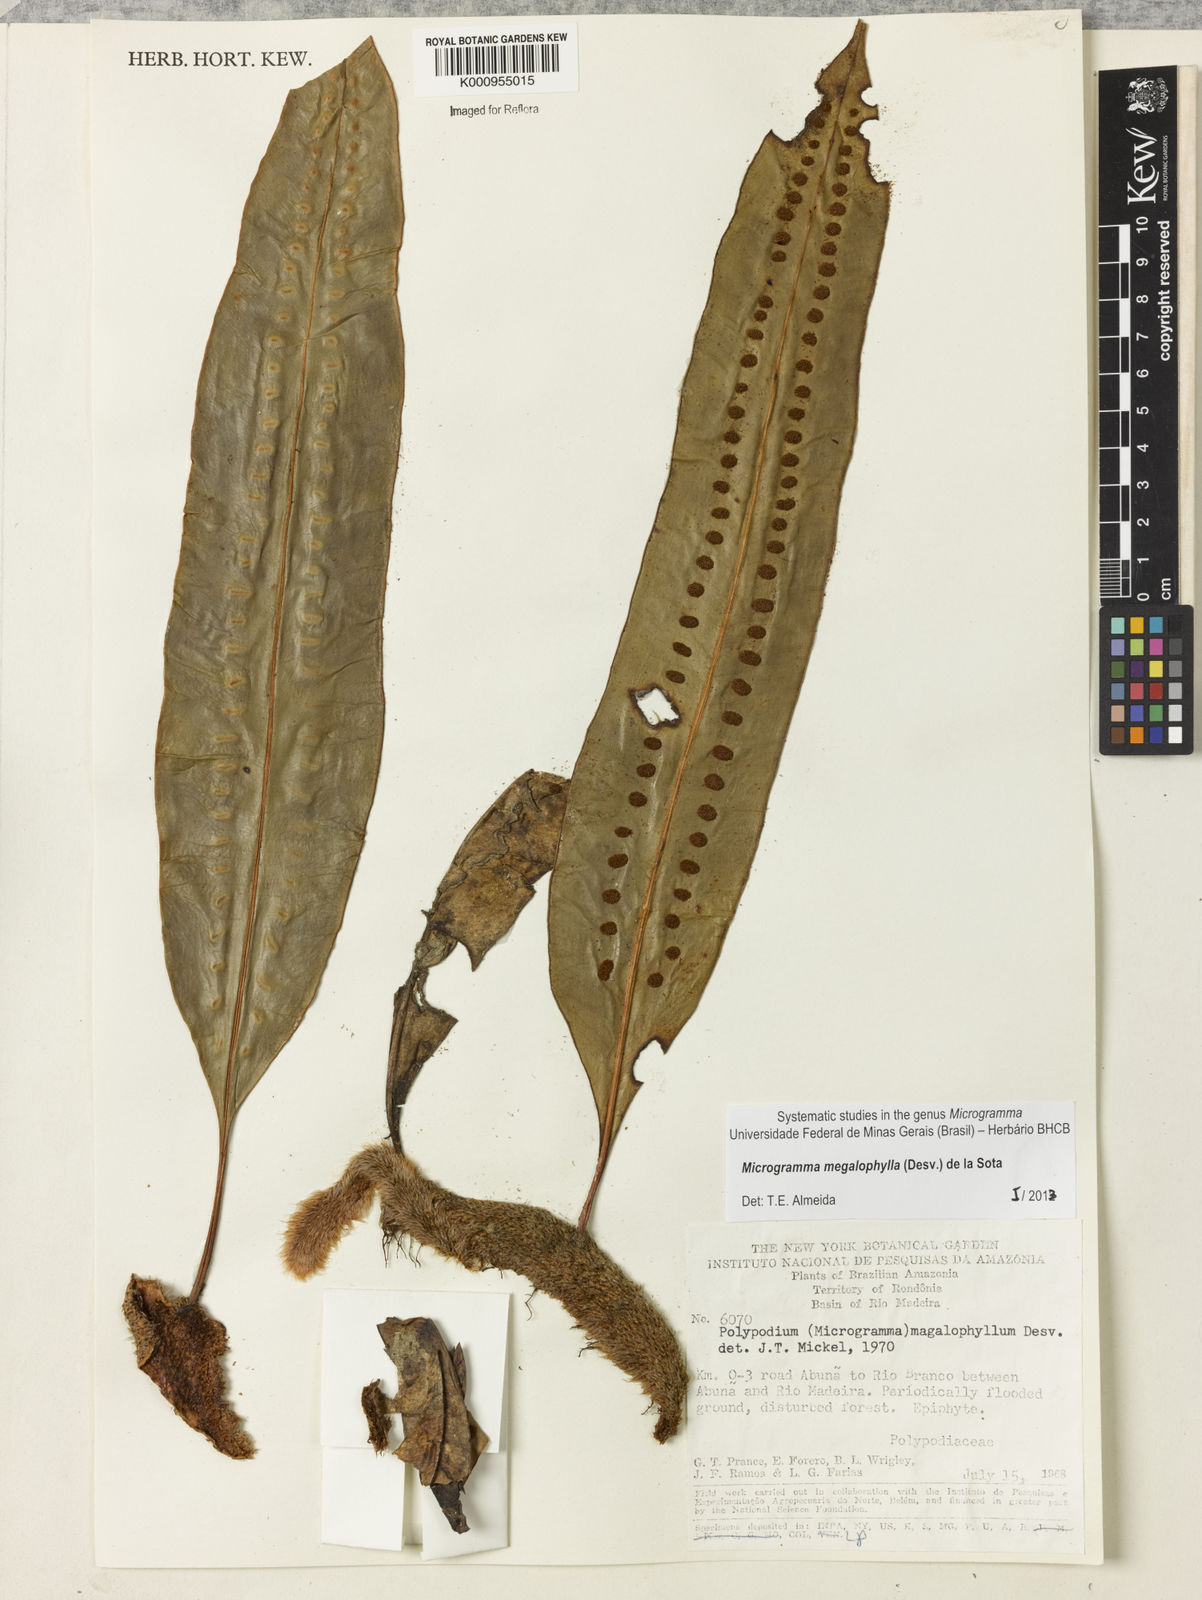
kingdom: Plantae
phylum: Tracheophyta
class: Polypodiopsida
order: Polypodiales
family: Polypodiaceae
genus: Microgramma
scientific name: Microgramma megalophylla
